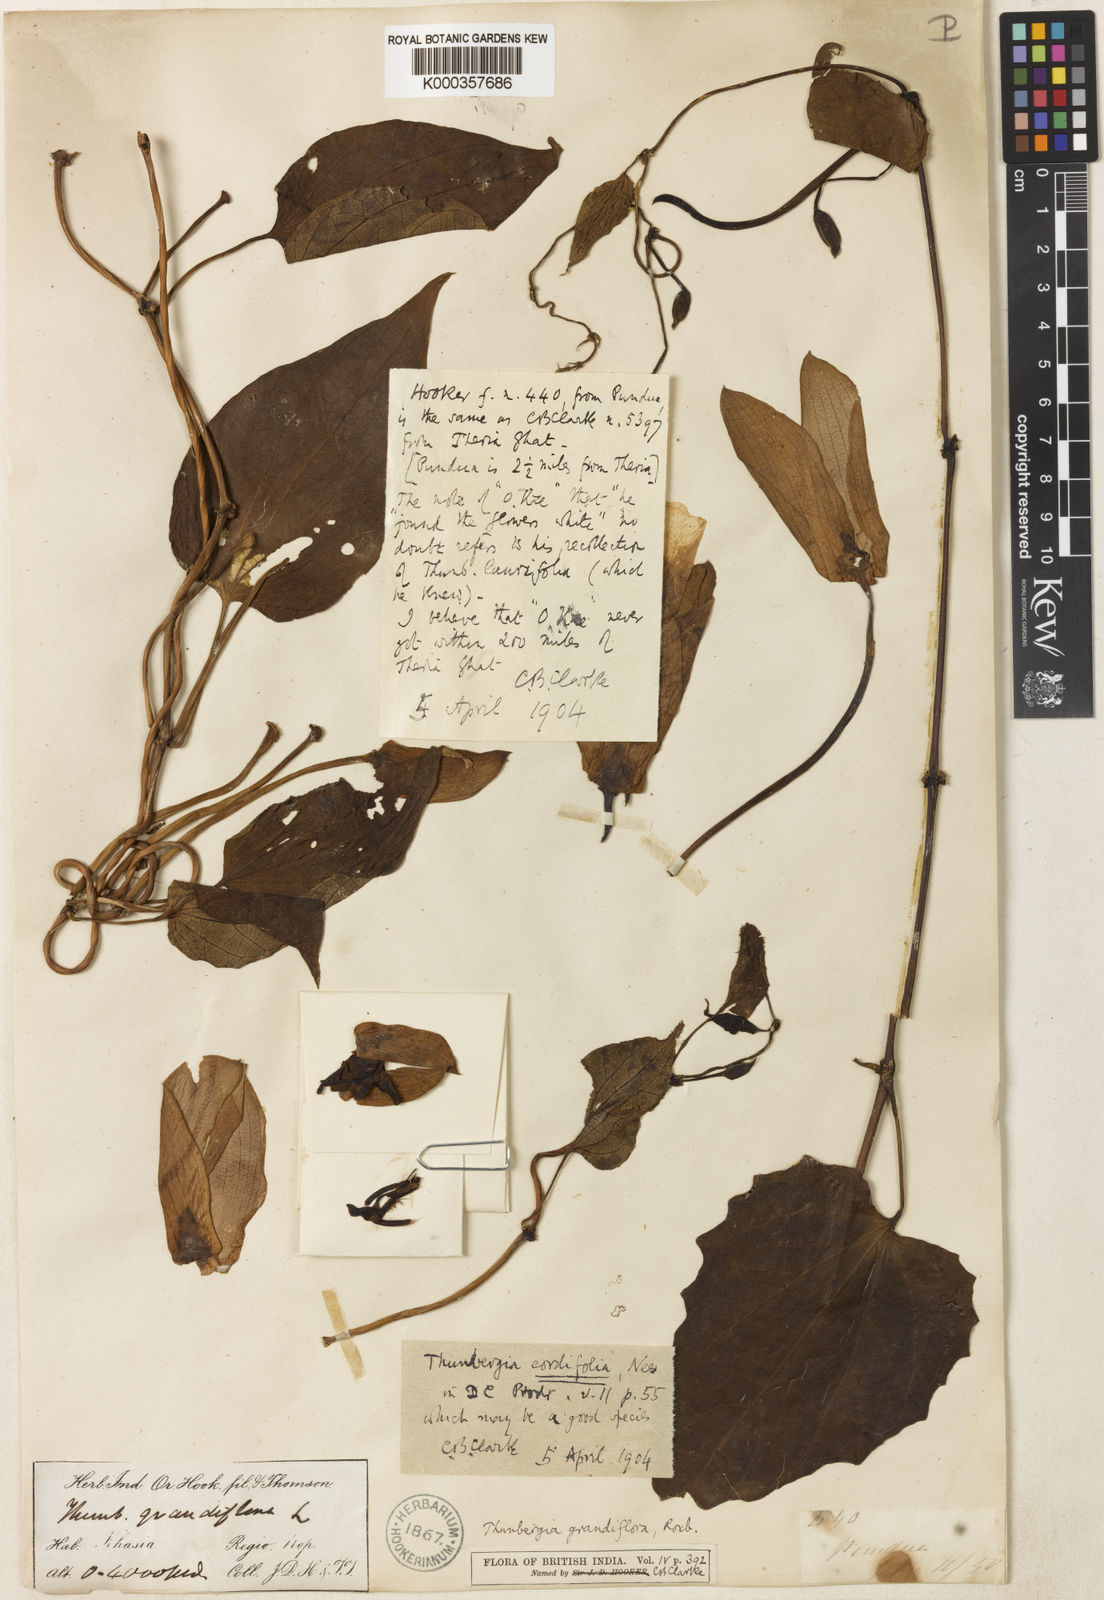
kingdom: Plantae
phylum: Tracheophyta
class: Magnoliopsida
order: Lamiales
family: Acanthaceae
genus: Thunbergia
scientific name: Thunbergia grandiflora
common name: Bengal trumpet
